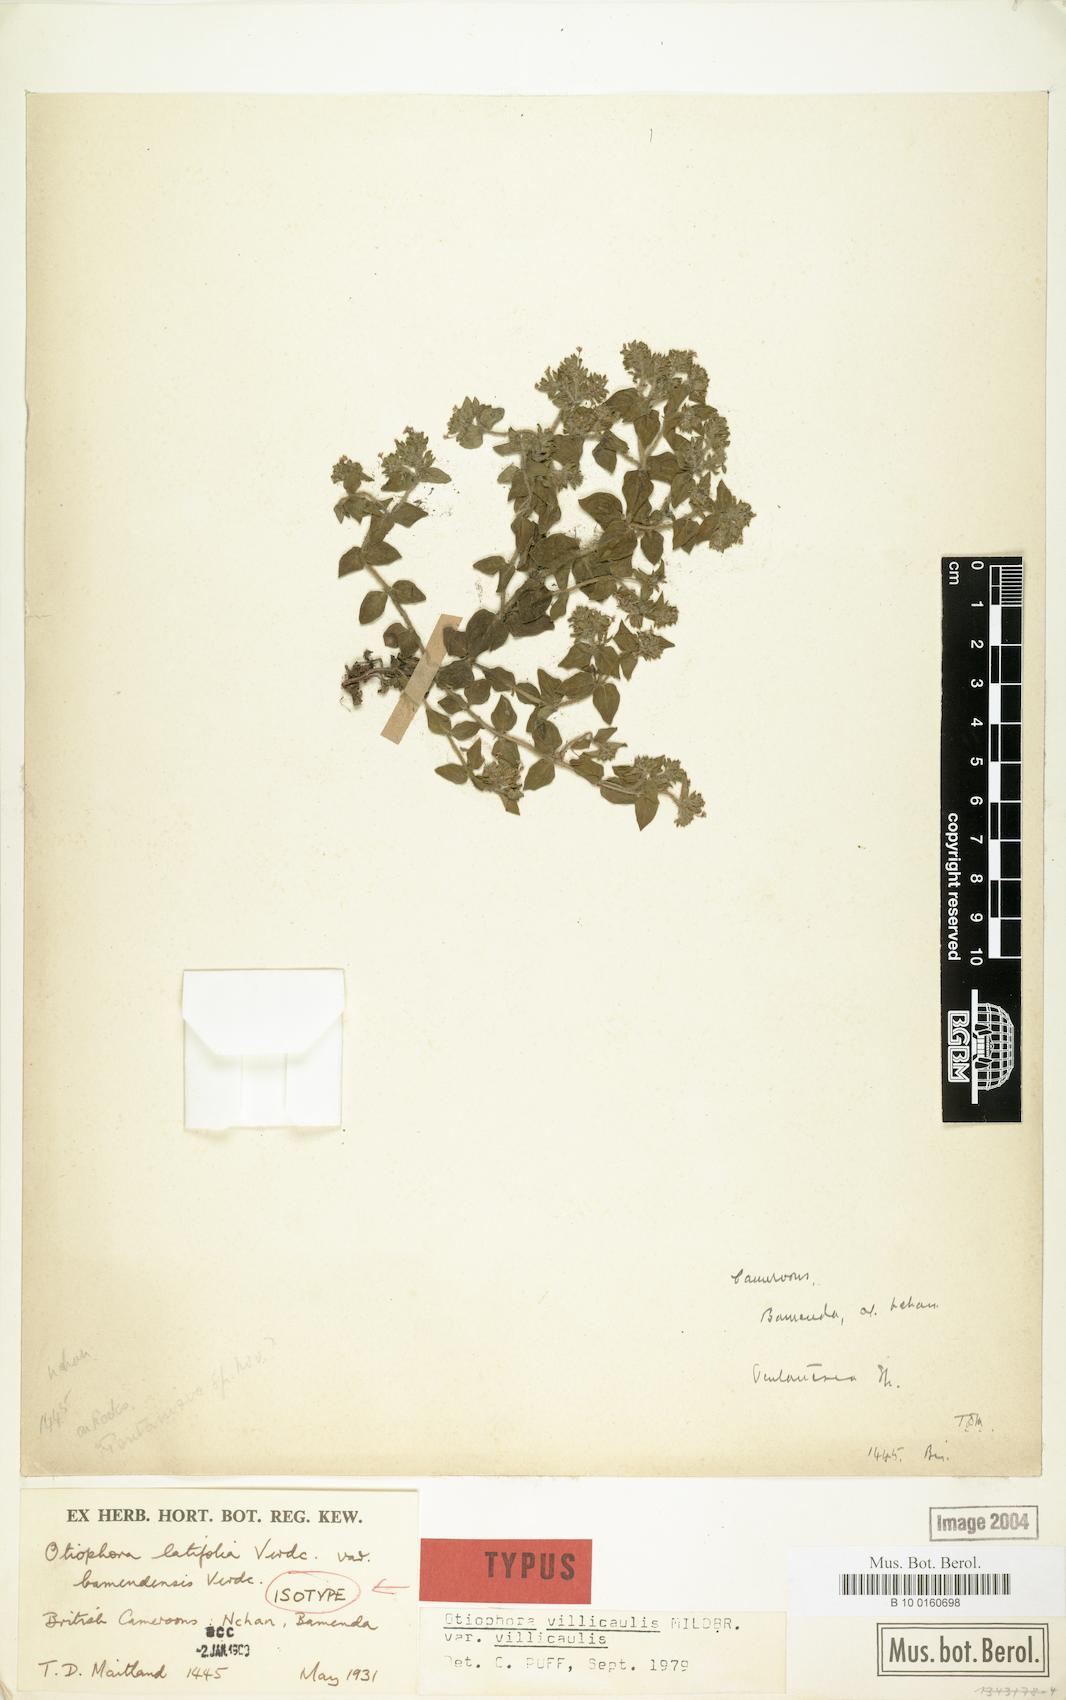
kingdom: Plantae
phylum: Tracheophyta
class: Magnoliopsida
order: Gentianales
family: Rubiaceae
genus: Otiophora
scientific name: Otiophora villicaulis
